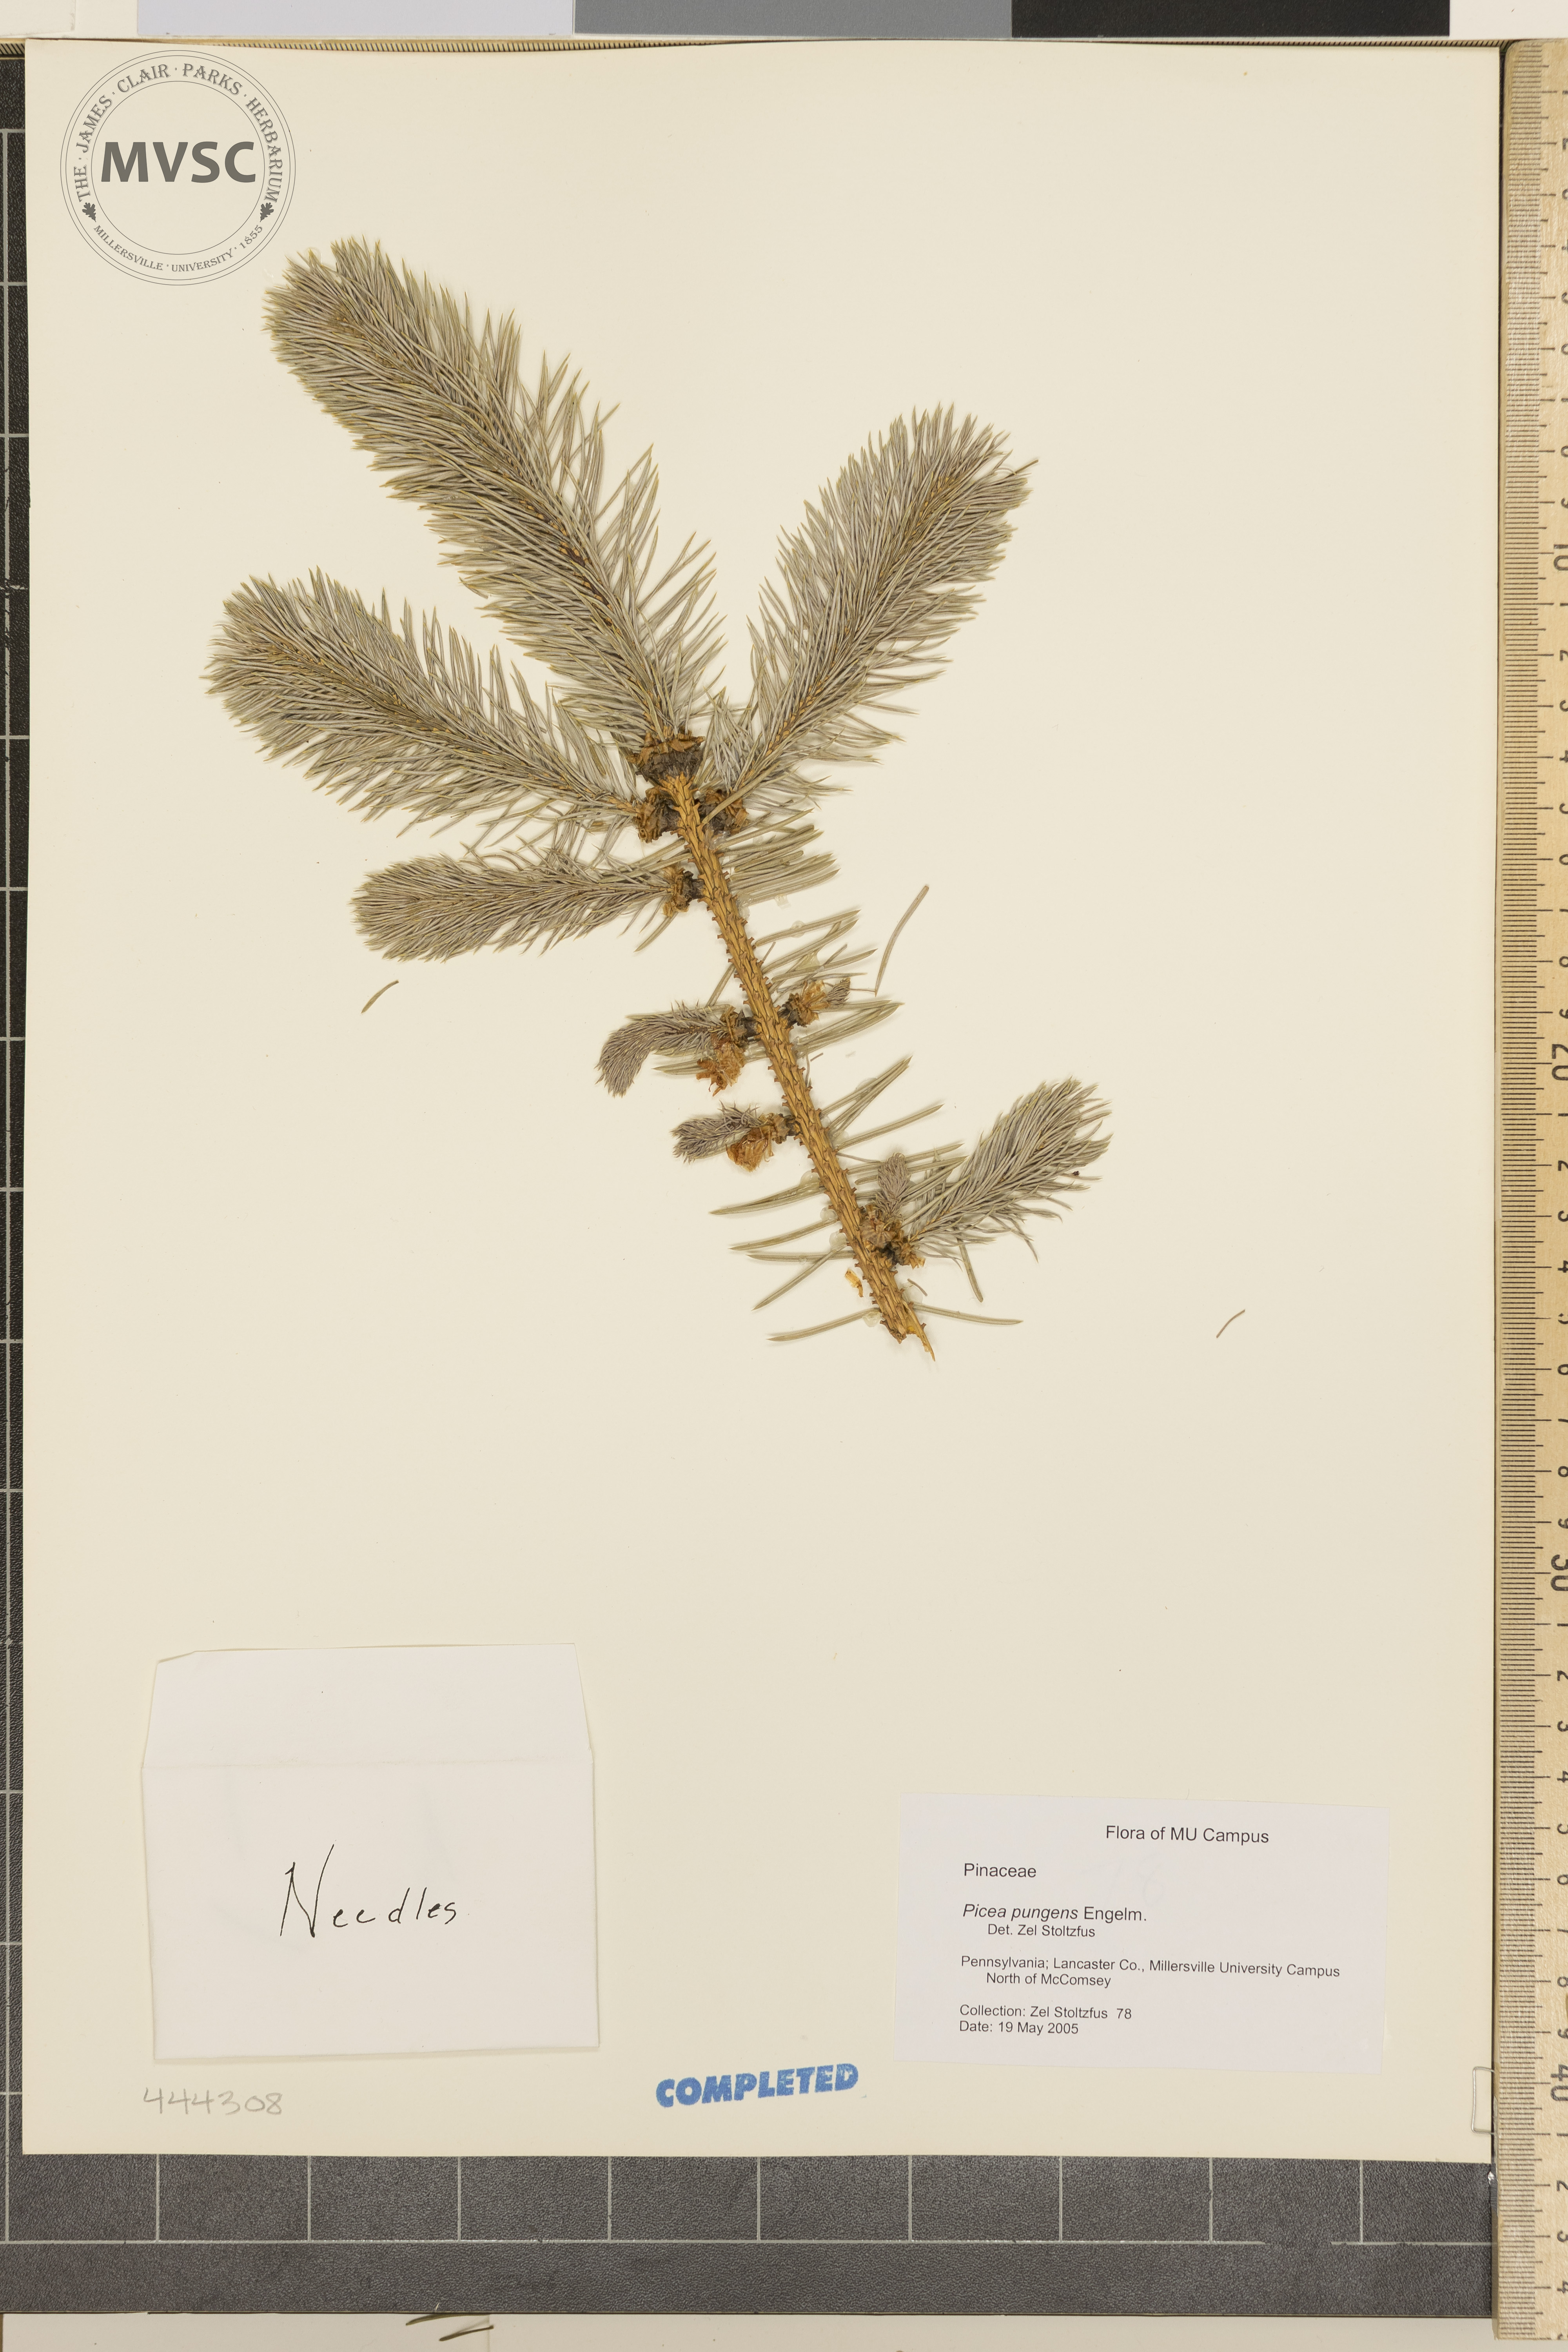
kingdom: Plantae
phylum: Tracheophyta
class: Pinopsida
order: Pinales
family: Pinaceae
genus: Picea
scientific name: Picea pungens
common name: Colorado Blue Spruce
